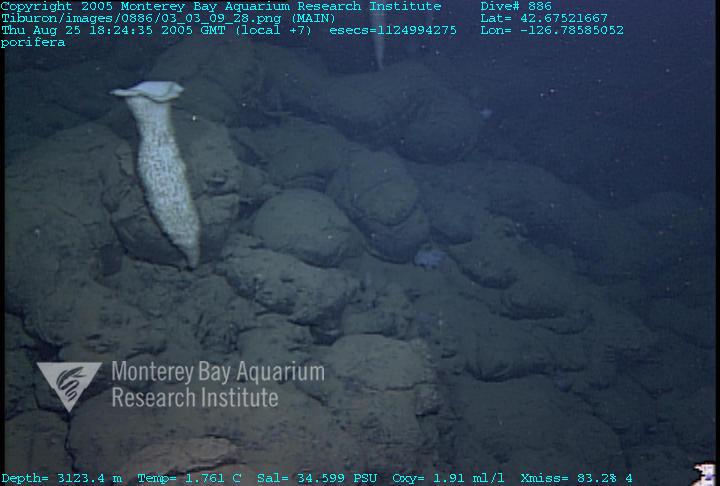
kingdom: Animalia
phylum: Porifera
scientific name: Porifera
